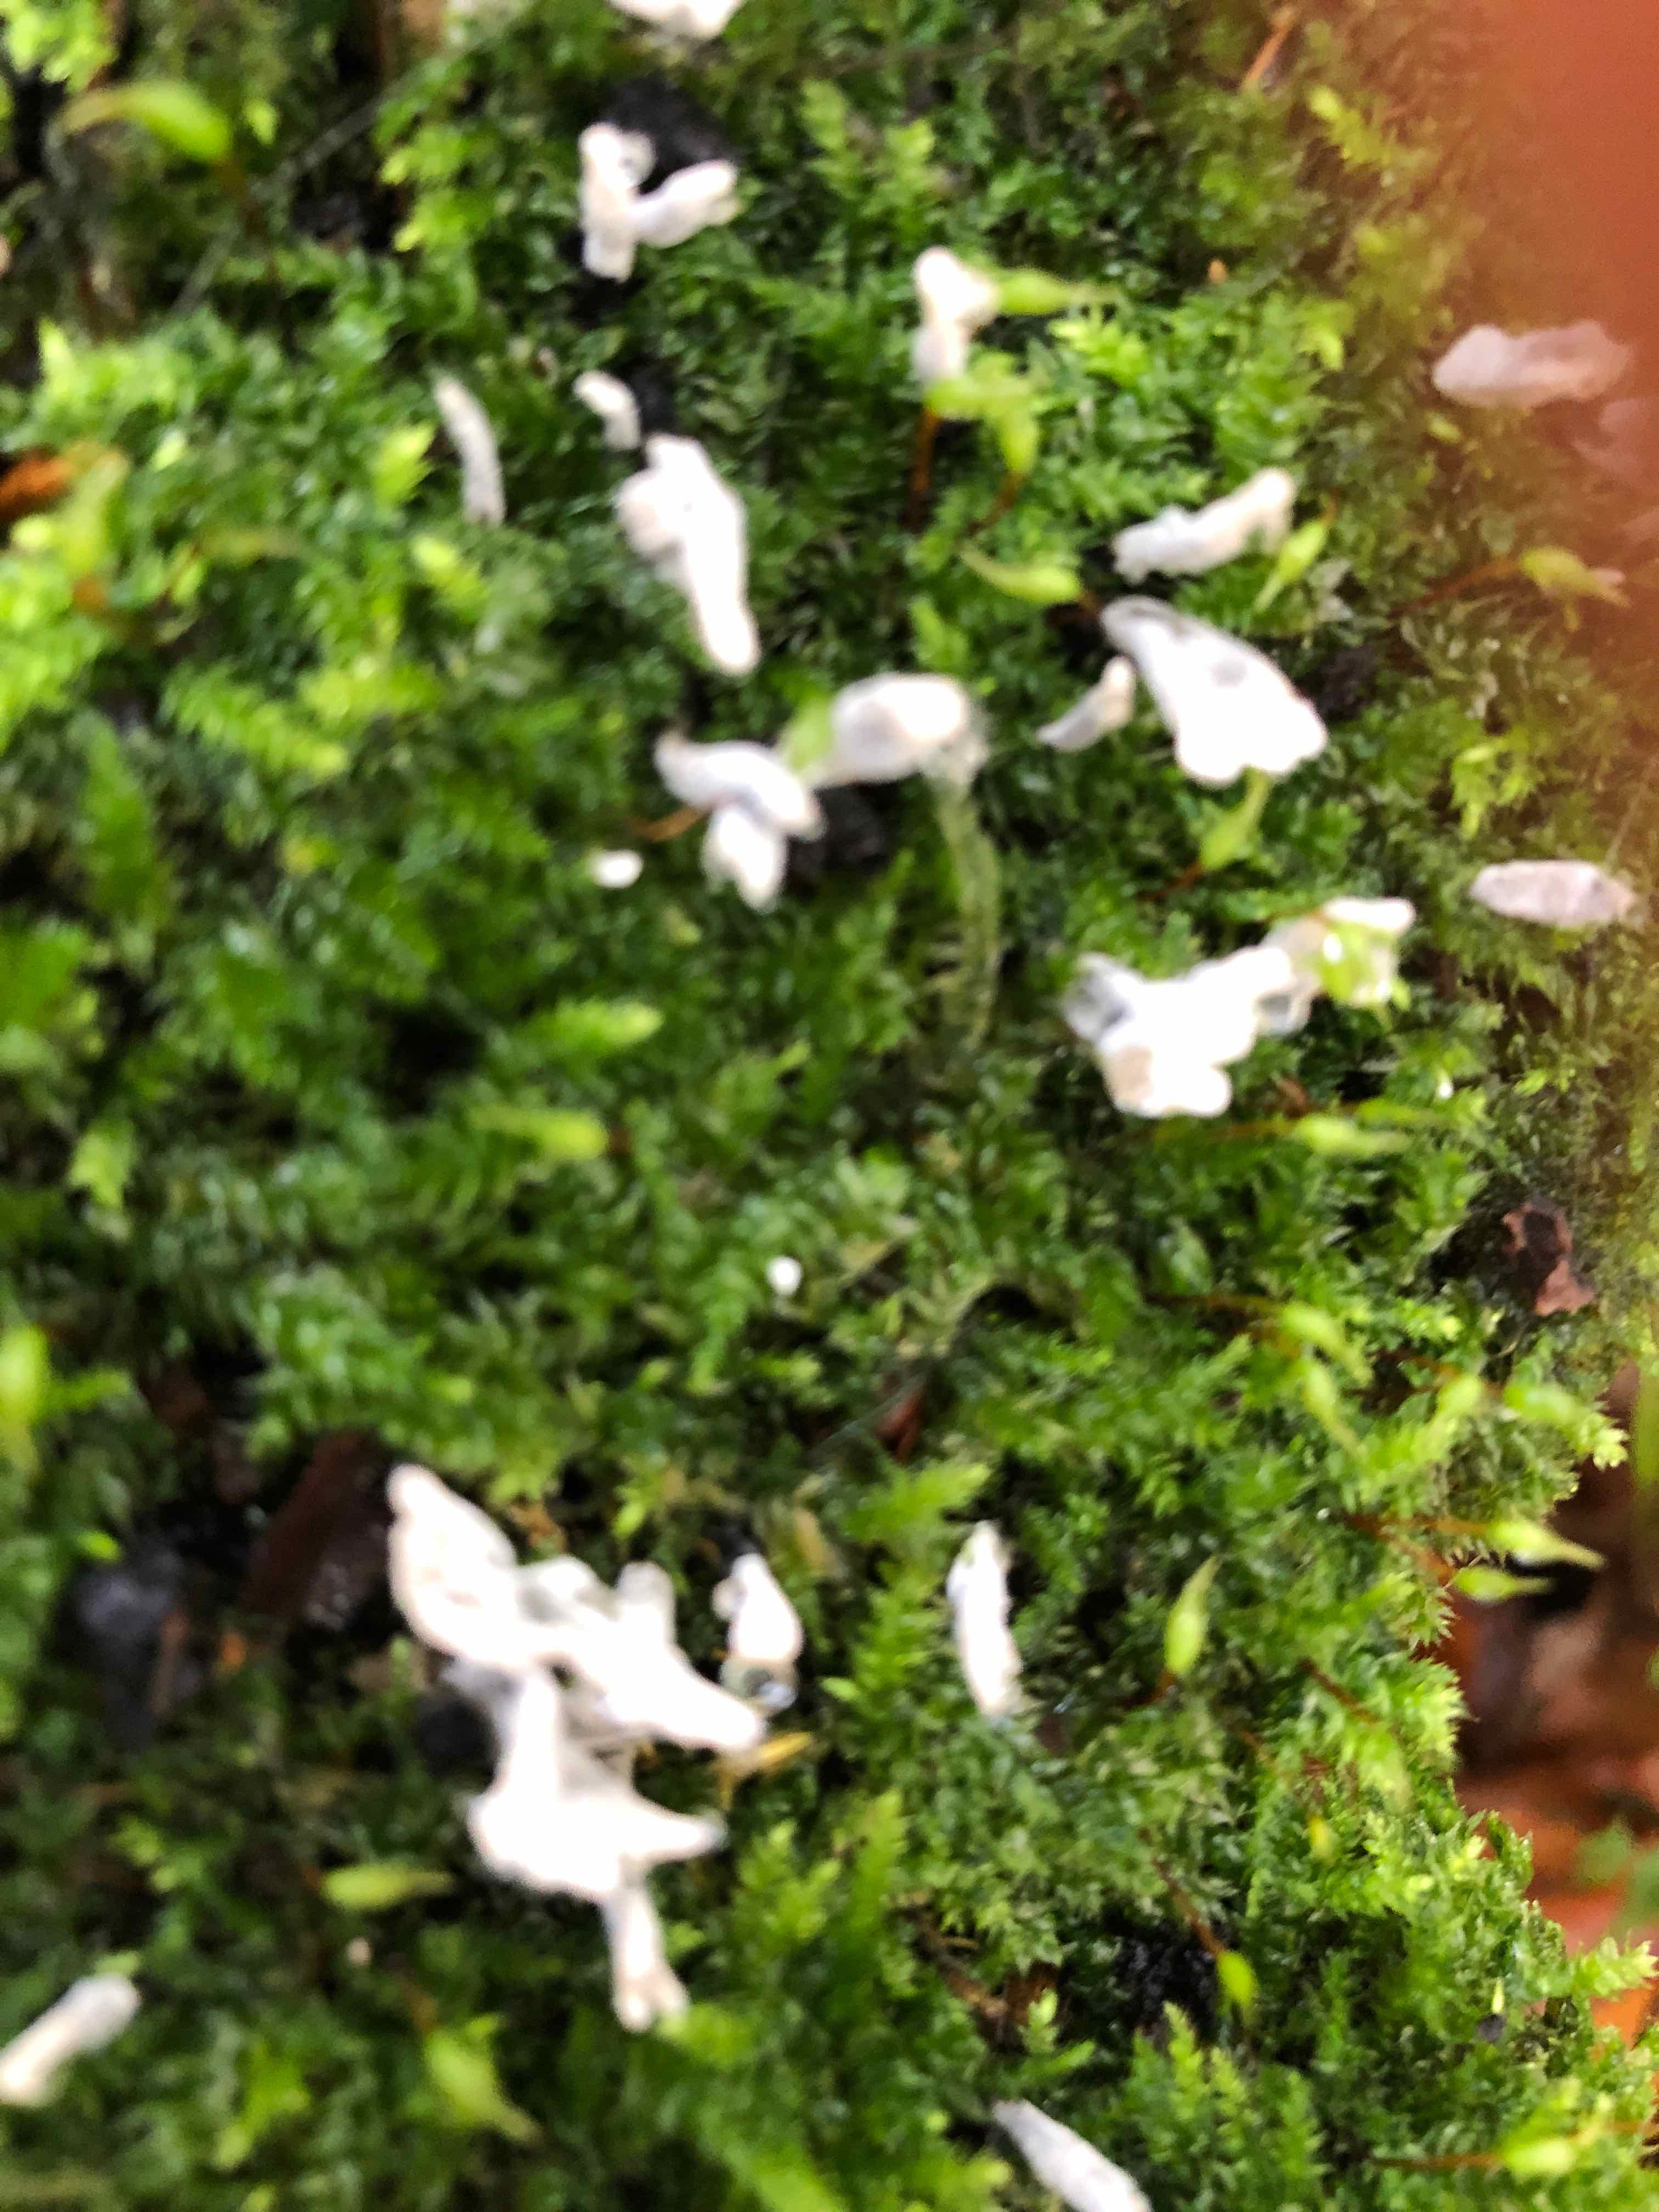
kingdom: Fungi
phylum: Ascomycota
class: Sordariomycetes
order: Xylariales
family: Xylariaceae
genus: Xylaria
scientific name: Xylaria hypoxylon
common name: grenet stødsvamp
